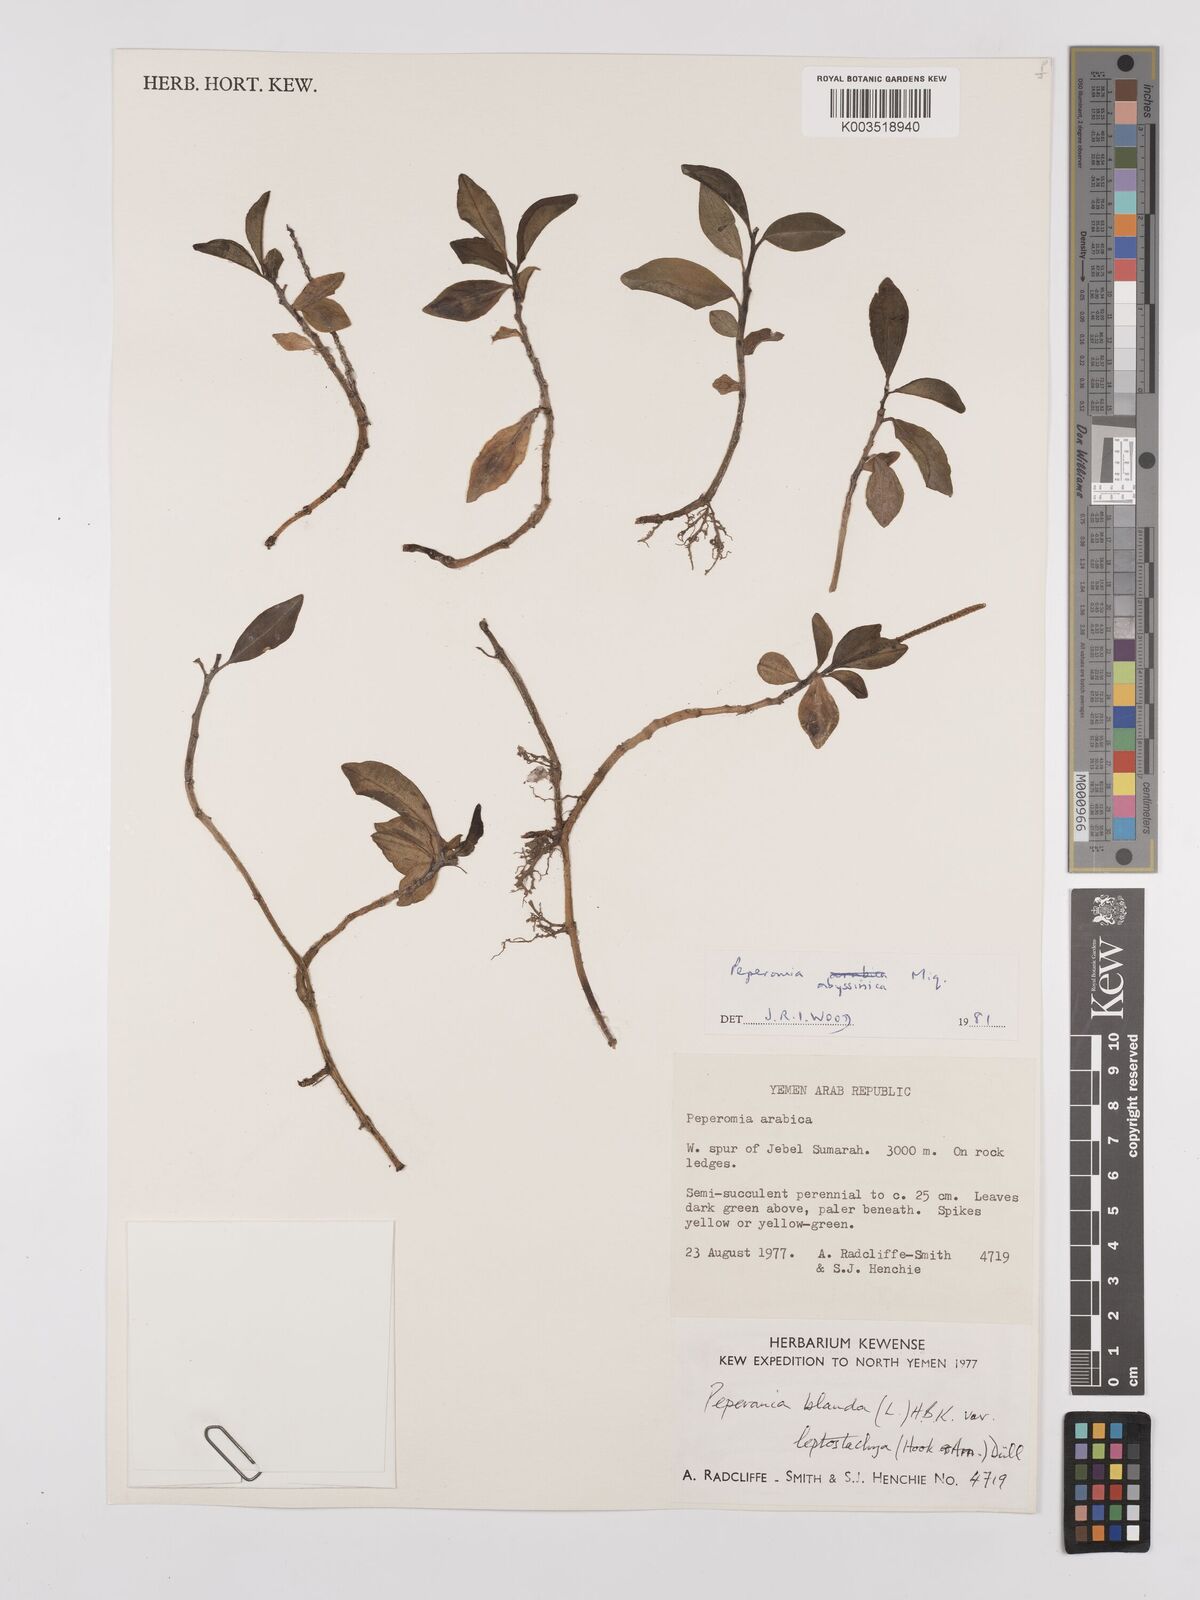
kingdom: Plantae
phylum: Tracheophyta
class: Magnoliopsida
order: Piperales
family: Piperaceae
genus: Peperomia
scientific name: Peperomia abyssinica
